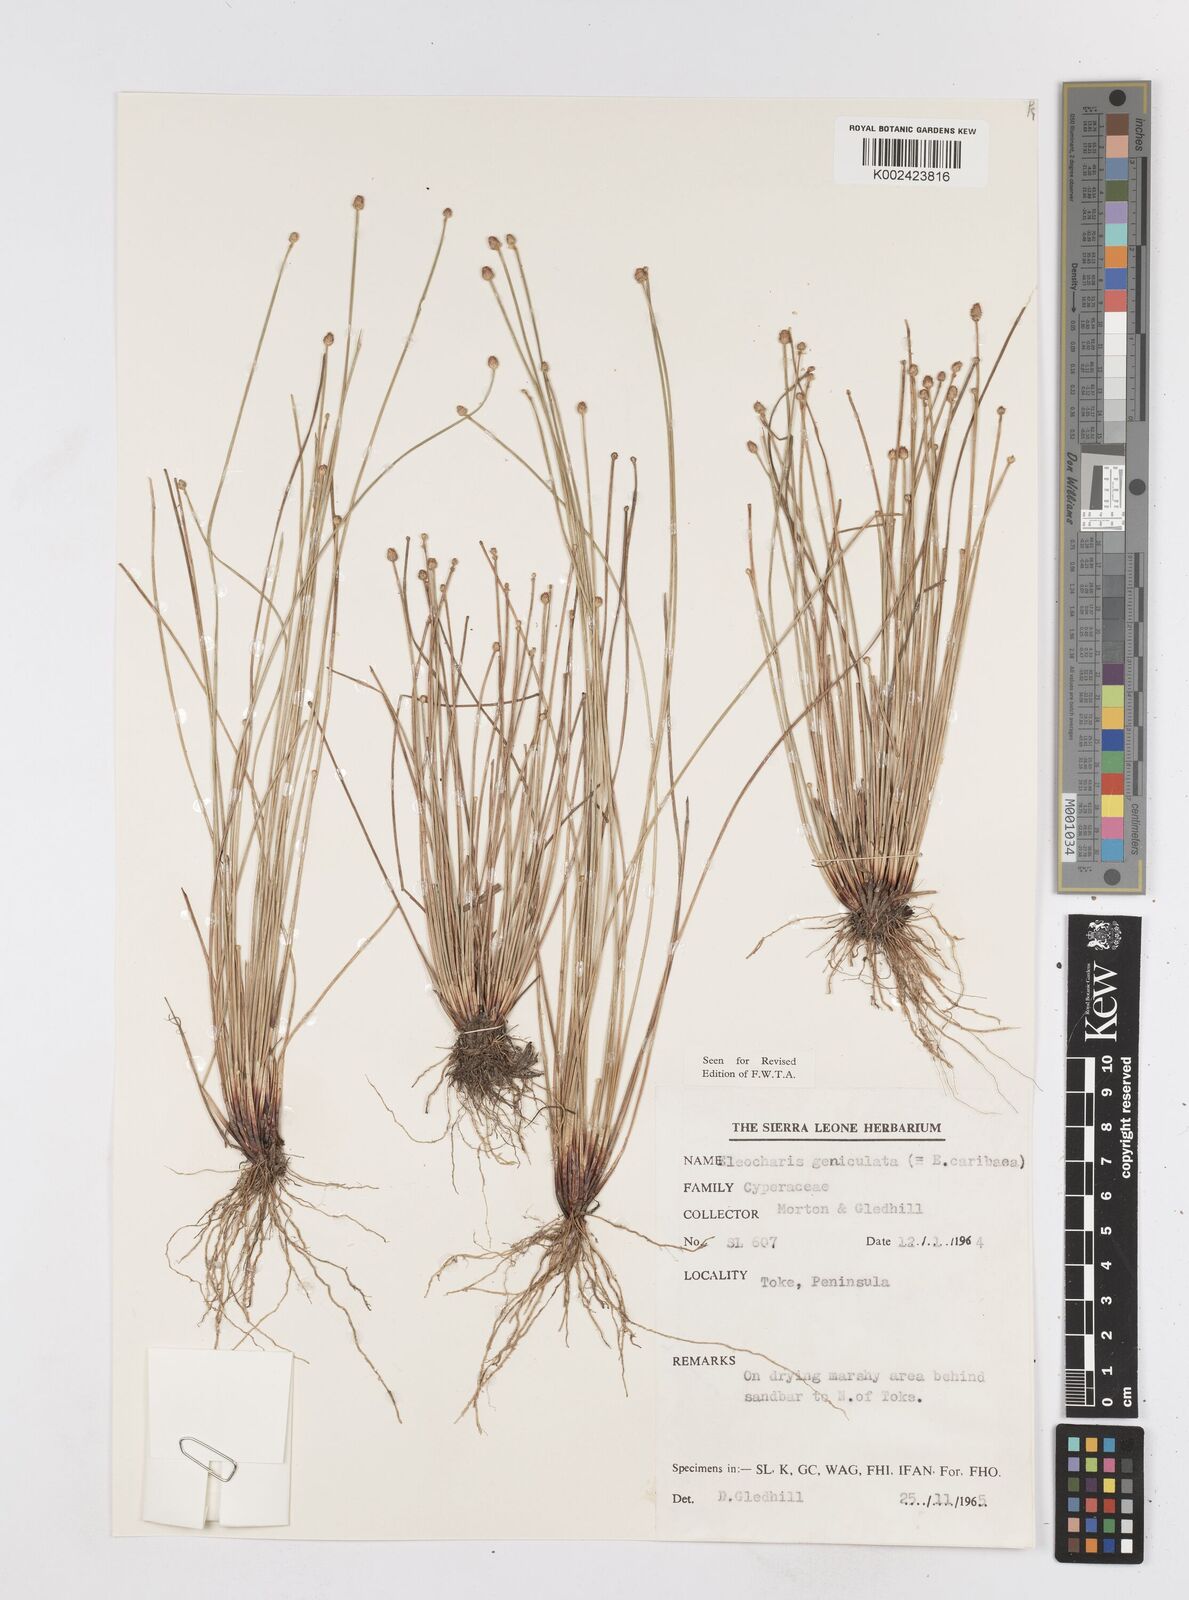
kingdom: Plantae
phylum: Tracheophyta
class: Liliopsida
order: Poales
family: Cyperaceae
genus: Eleocharis
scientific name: Eleocharis geniculata
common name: Canada spikesedge
